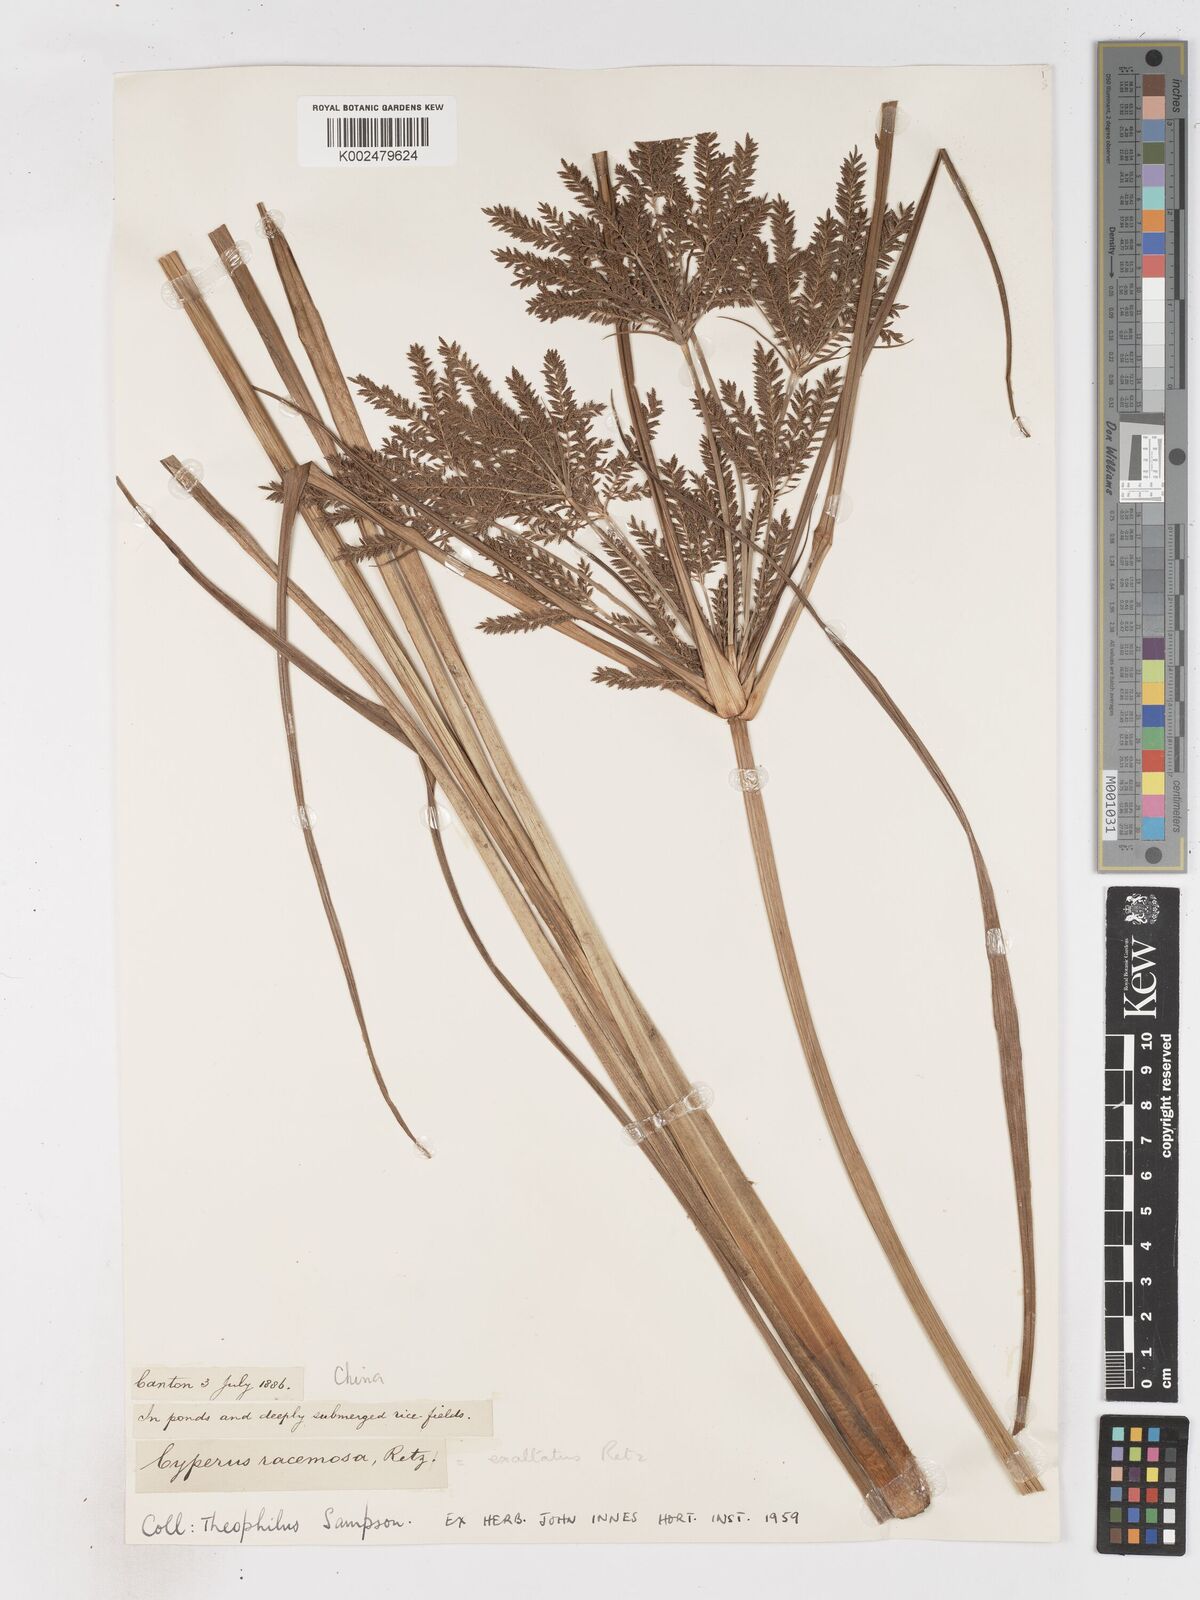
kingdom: Plantae
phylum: Tracheophyta
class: Liliopsida
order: Poales
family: Cyperaceae
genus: Cyperus
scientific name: Cyperus exaltatus
